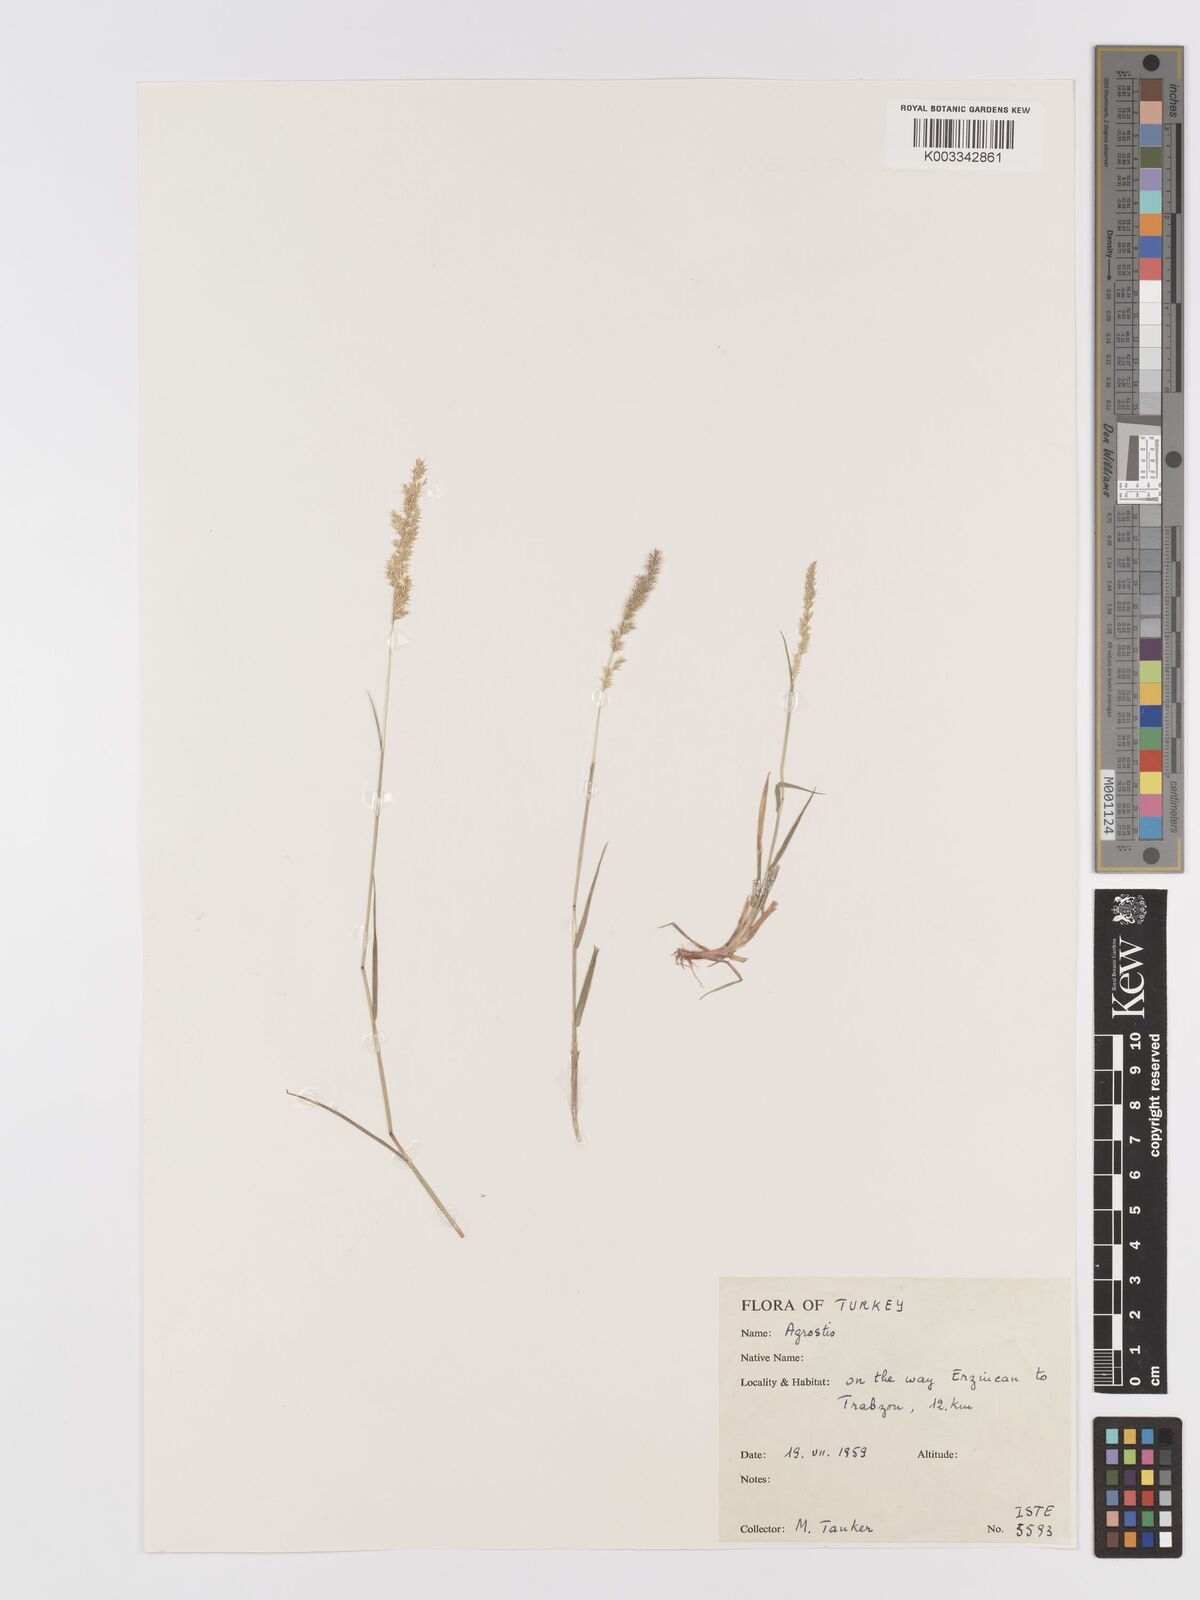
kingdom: Plantae
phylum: Tracheophyta
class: Liliopsida
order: Poales
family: Poaceae
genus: Agrostis
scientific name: Agrostis
